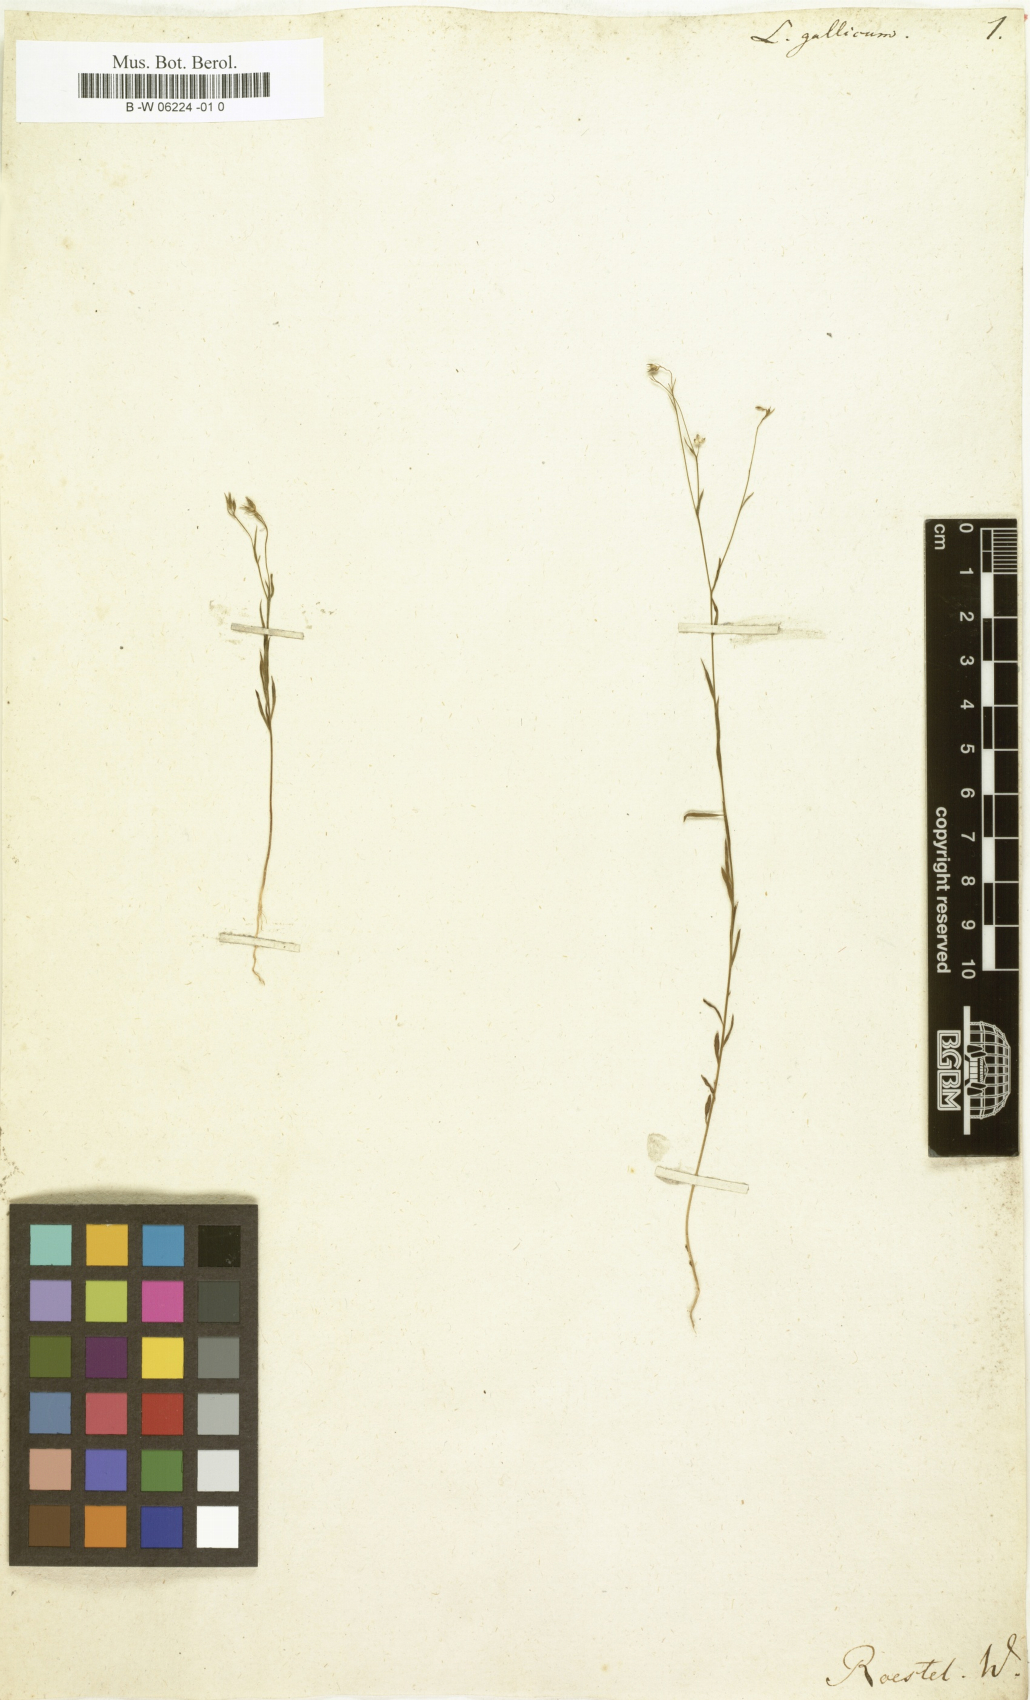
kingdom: Plantae
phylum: Tracheophyta
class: Magnoliopsida
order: Malpighiales
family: Linaceae
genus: Linum
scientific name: Linum
